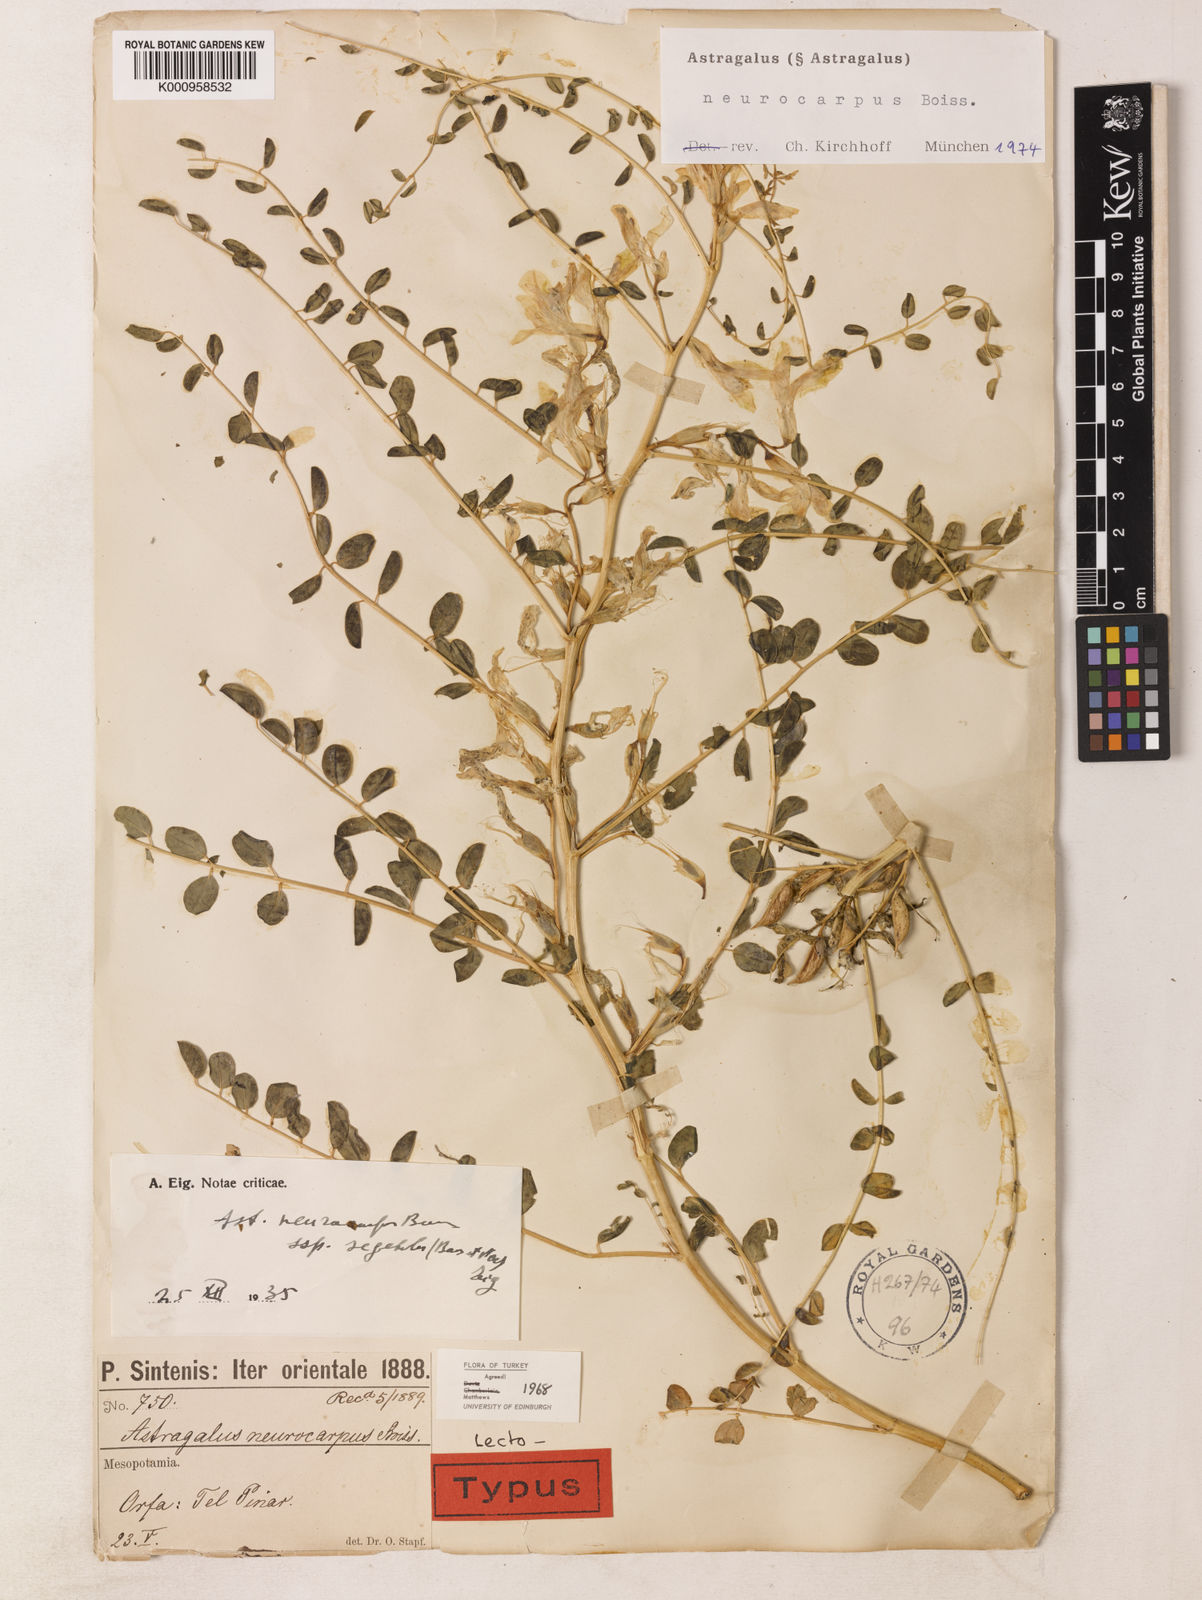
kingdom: Plantae
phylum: Tracheophyta
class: Magnoliopsida
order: Fabales
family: Fabaceae
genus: Astragalus
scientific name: Astragalus
